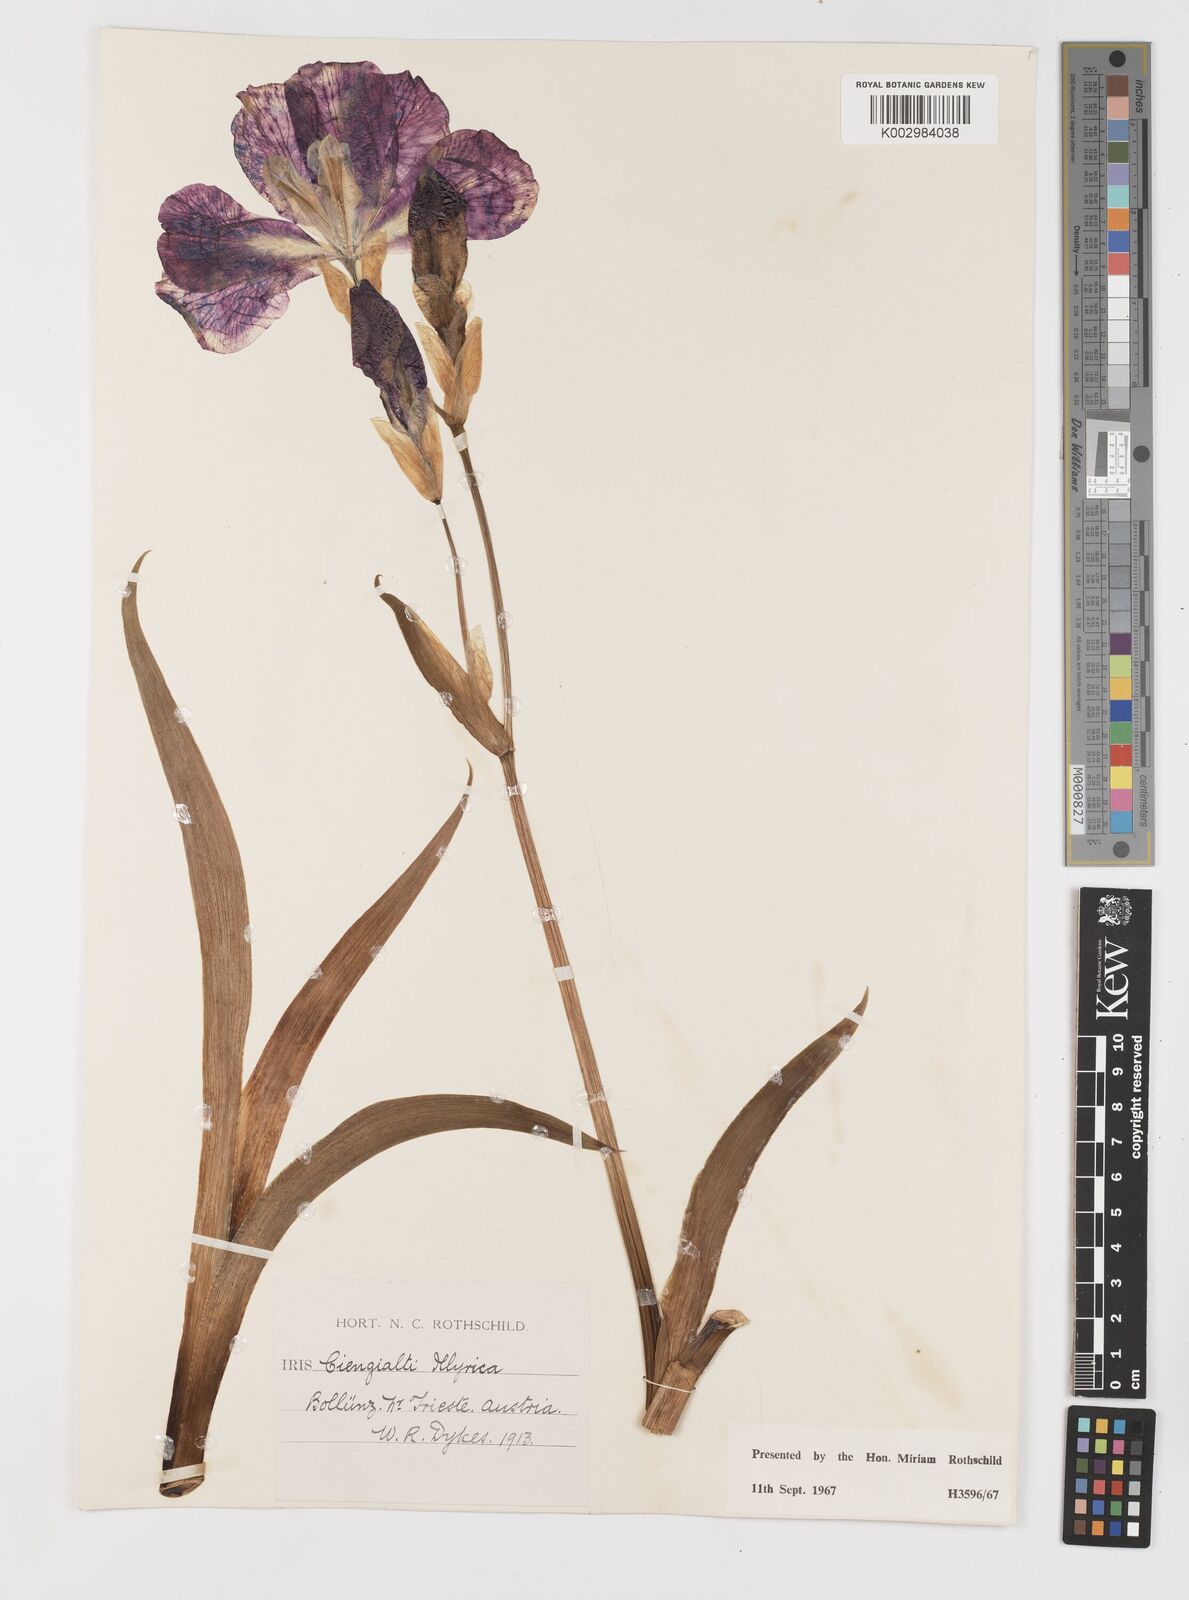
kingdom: Plantae
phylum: Tracheophyta
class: Liliopsida
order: Asparagales
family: Iridaceae
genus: Iris
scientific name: Iris pallida
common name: Sweet iris
